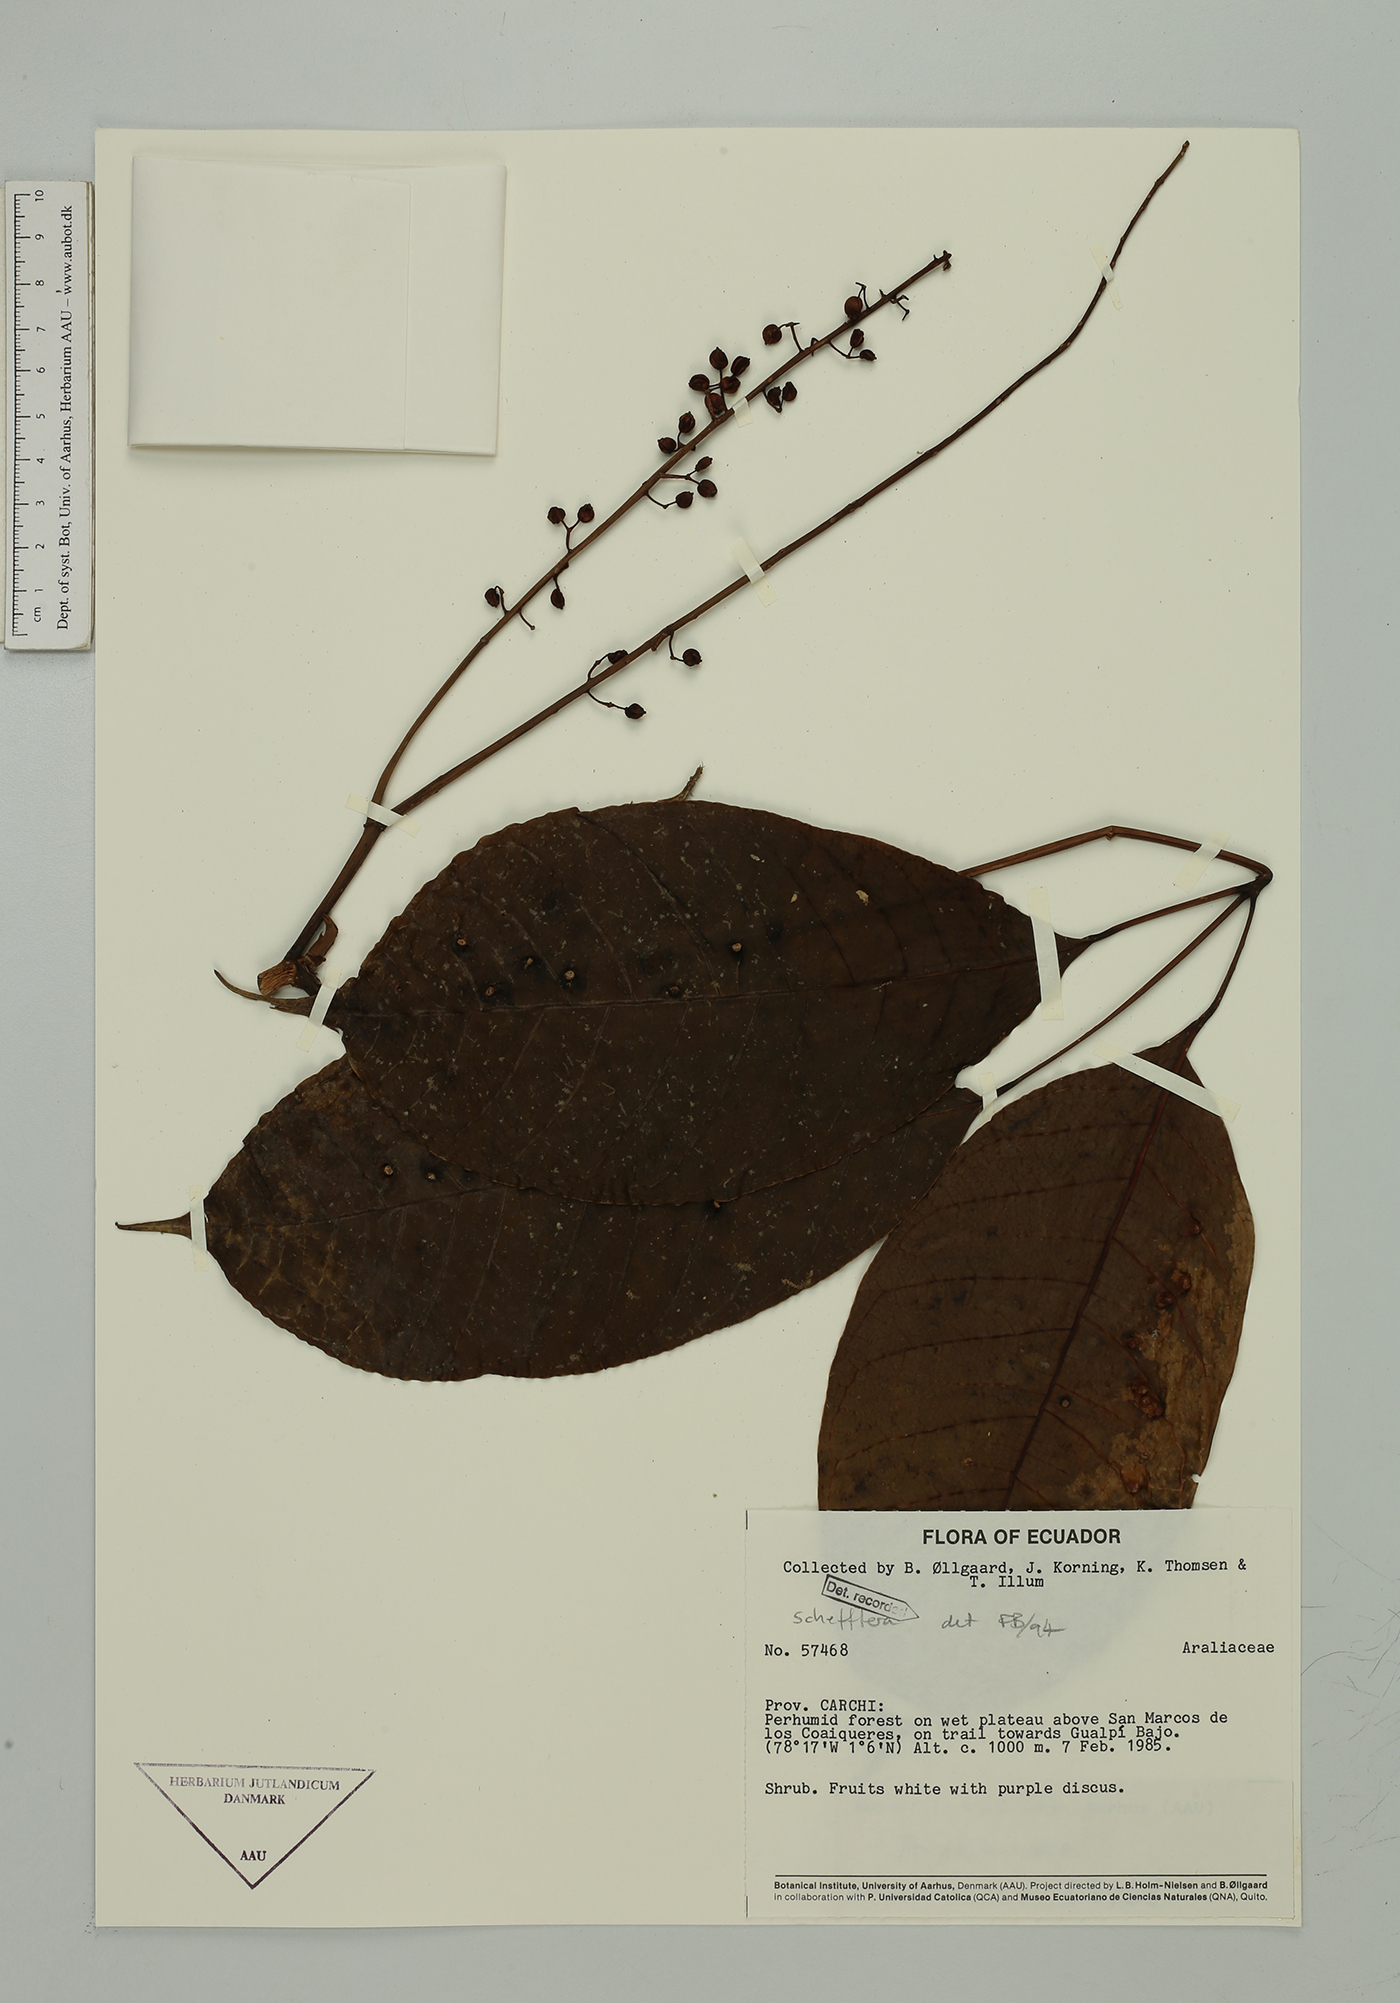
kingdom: Plantae
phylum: Tracheophyta
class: Magnoliopsida
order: Apiales
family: Araliaceae
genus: Sciodaphyllum
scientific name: Sciodaphyllum
